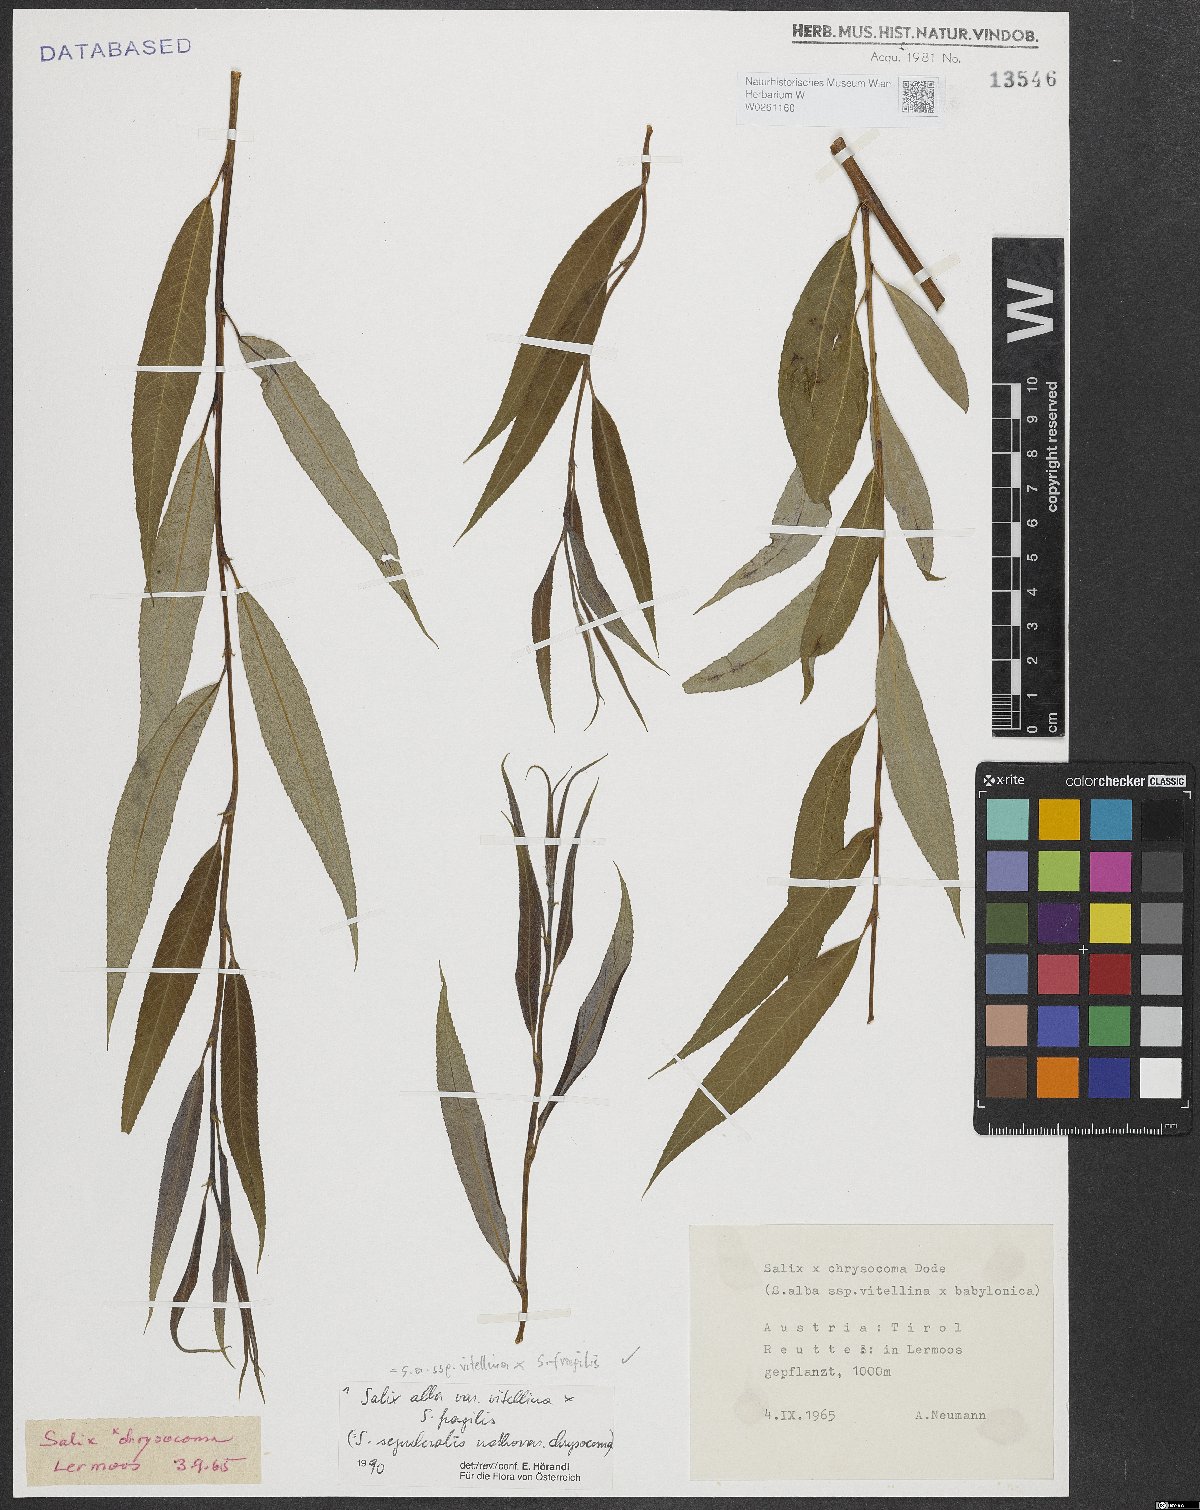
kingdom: Plantae
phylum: Tracheophyta
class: Magnoliopsida
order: Malpighiales
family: Salicaceae
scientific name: Salicaceae
